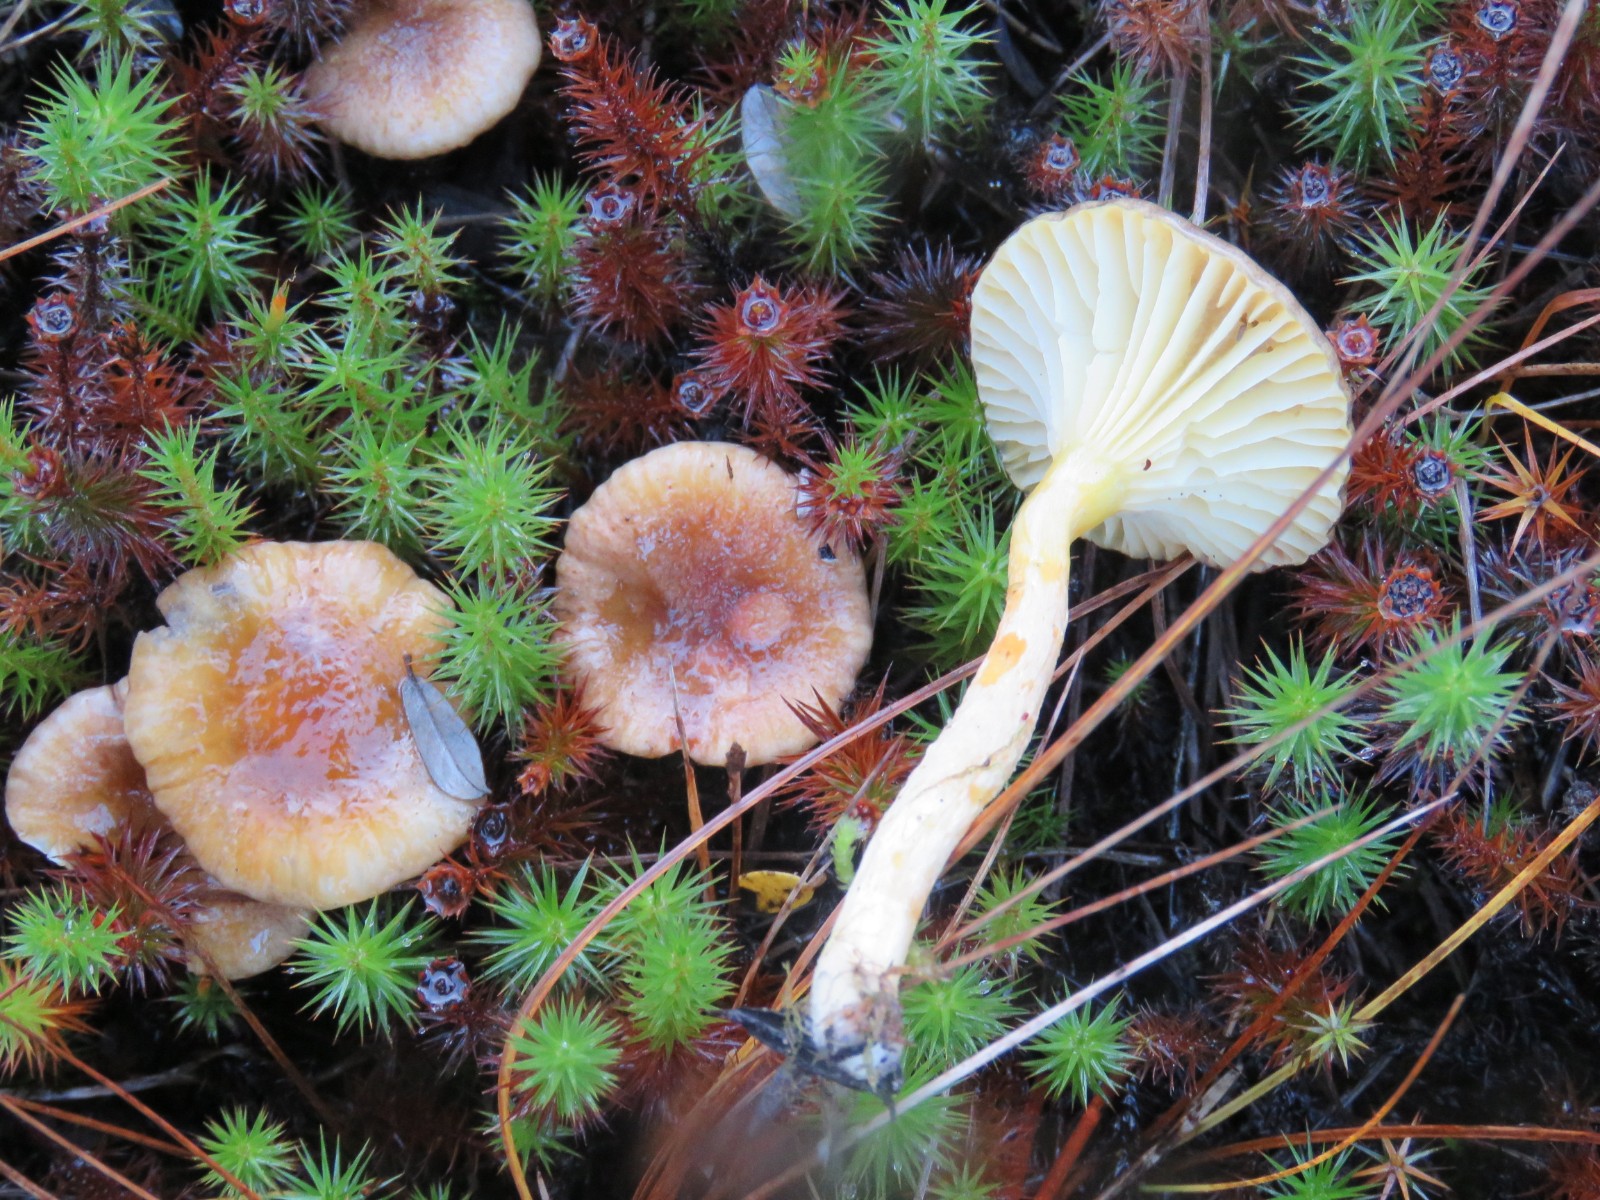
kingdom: Fungi
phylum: Basidiomycota
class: Agaricomycetes
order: Agaricales
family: Hygrophoraceae
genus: Hygrophorus
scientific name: Hygrophorus hypothejus
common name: frost-sneglehat
